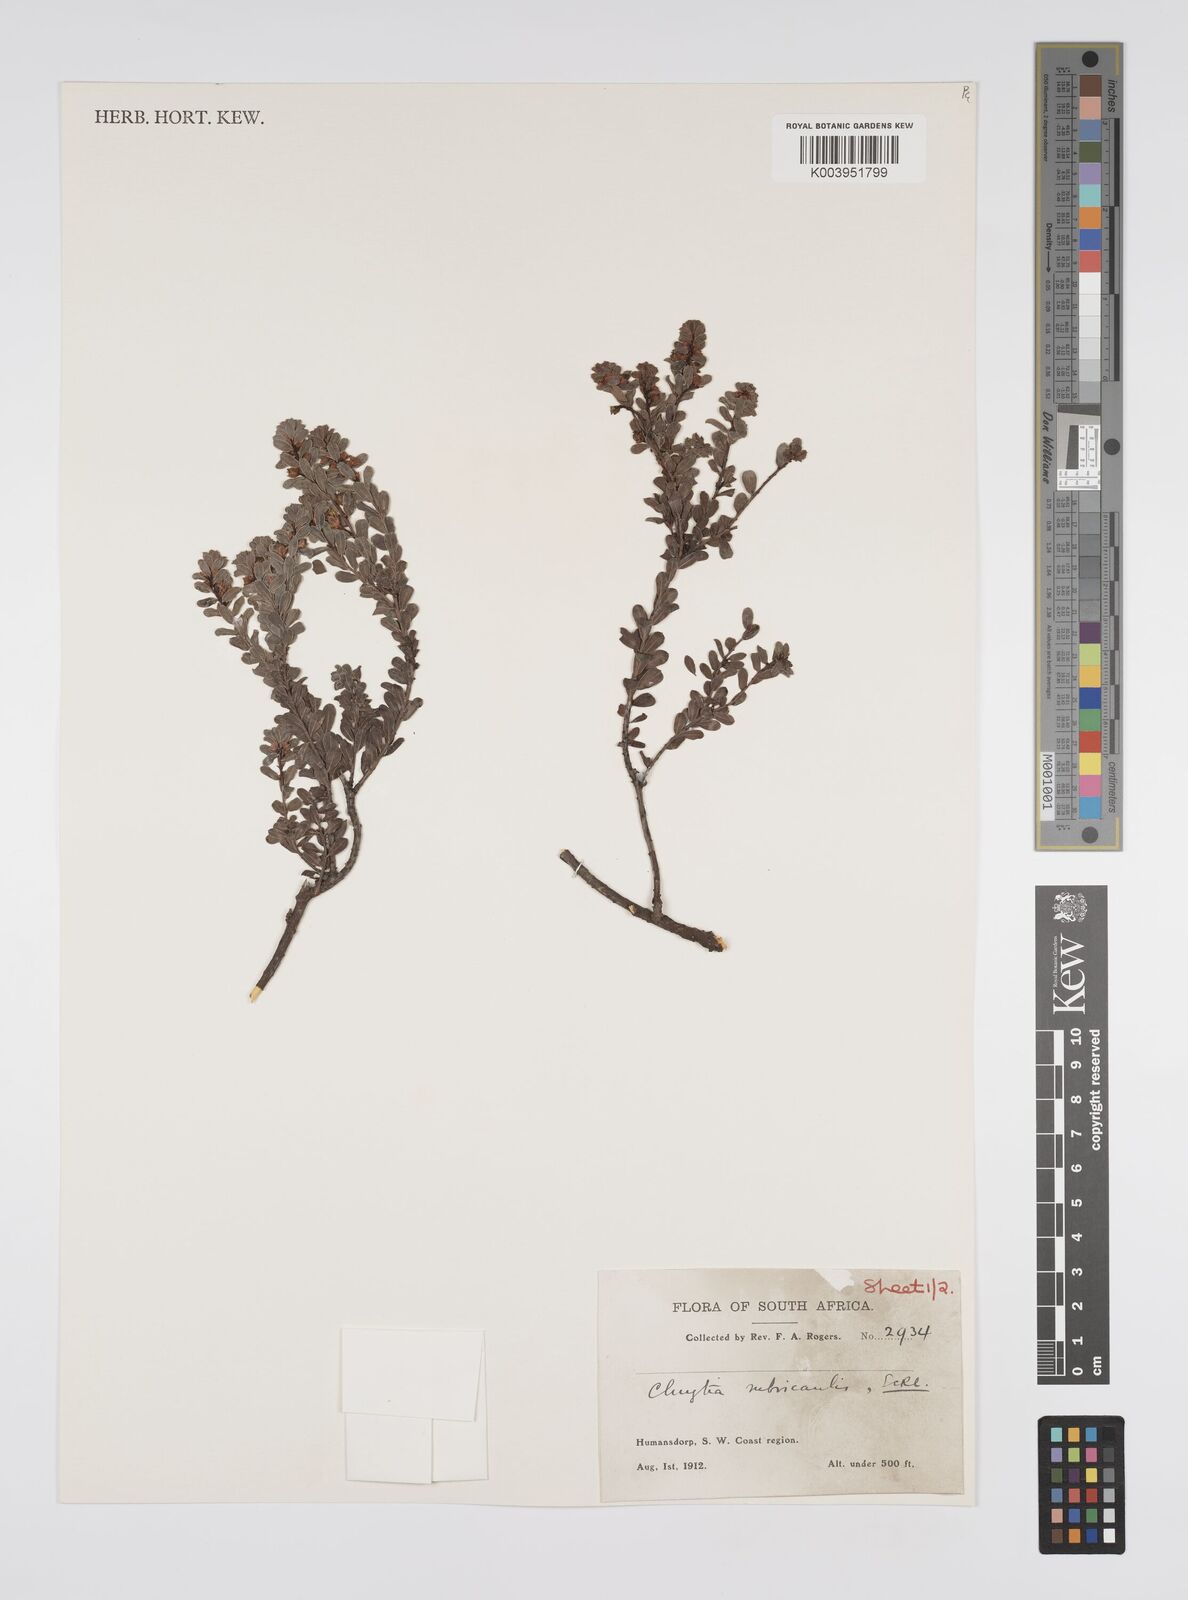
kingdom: Plantae
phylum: Tracheophyta
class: Magnoliopsida
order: Malpighiales
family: Peraceae
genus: Clutia
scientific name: Clutia rubricaulis
